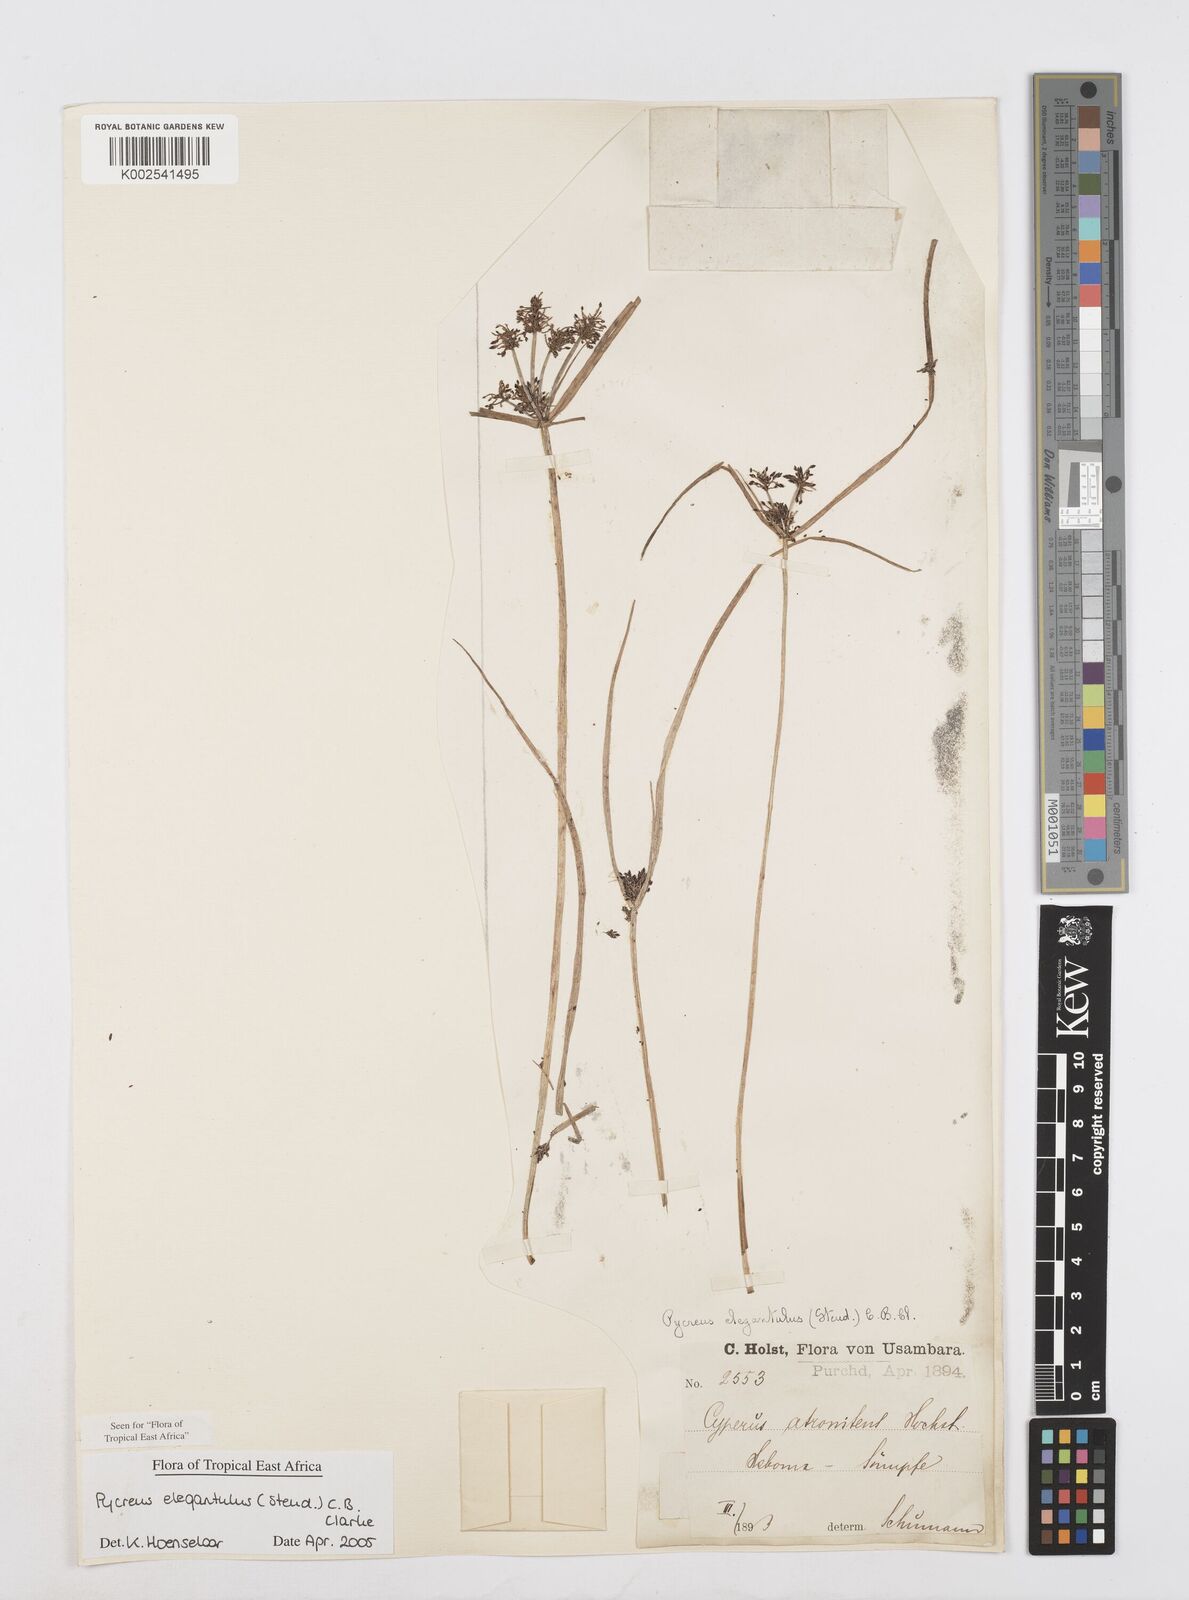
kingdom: Plantae
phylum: Tracheophyta
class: Liliopsida
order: Poales
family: Cyperaceae
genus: Cyperus
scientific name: Cyperus elegantulus
